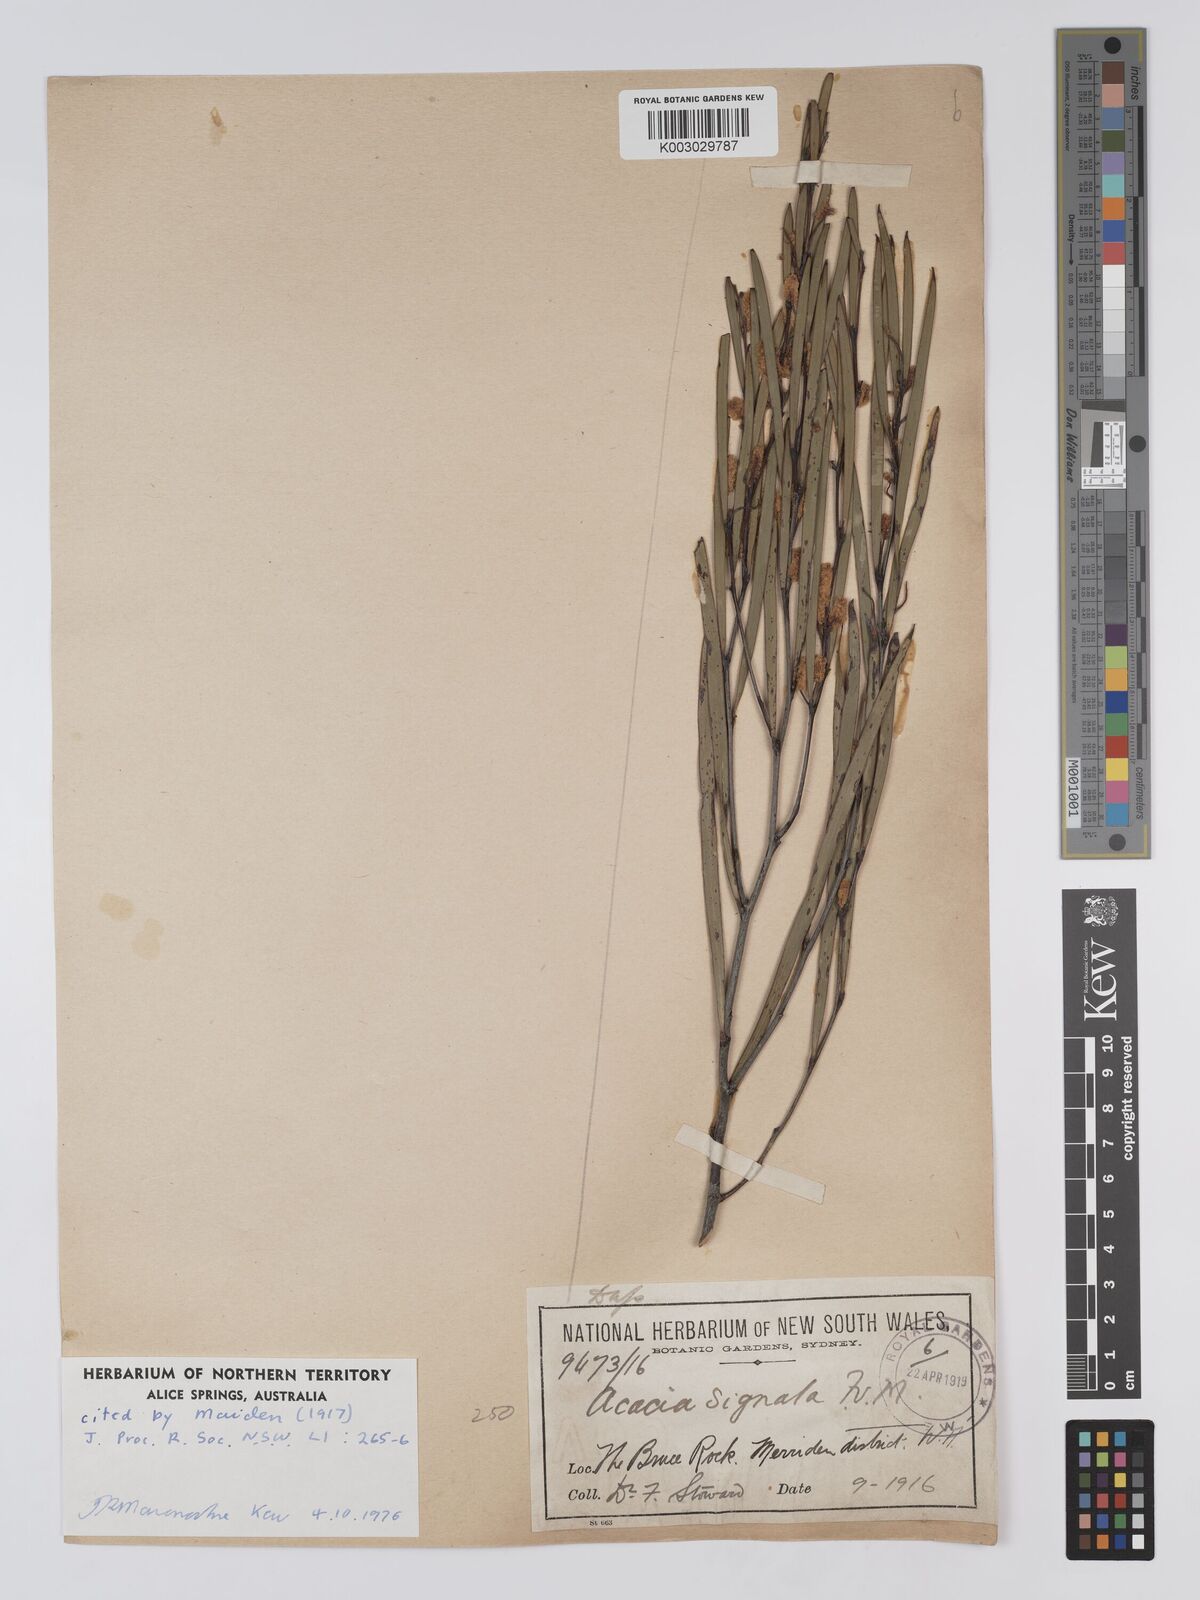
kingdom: Plantae
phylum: Tracheophyta
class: Magnoliopsida
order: Fabales
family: Fabaceae
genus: Acacia
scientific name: Acacia signata
